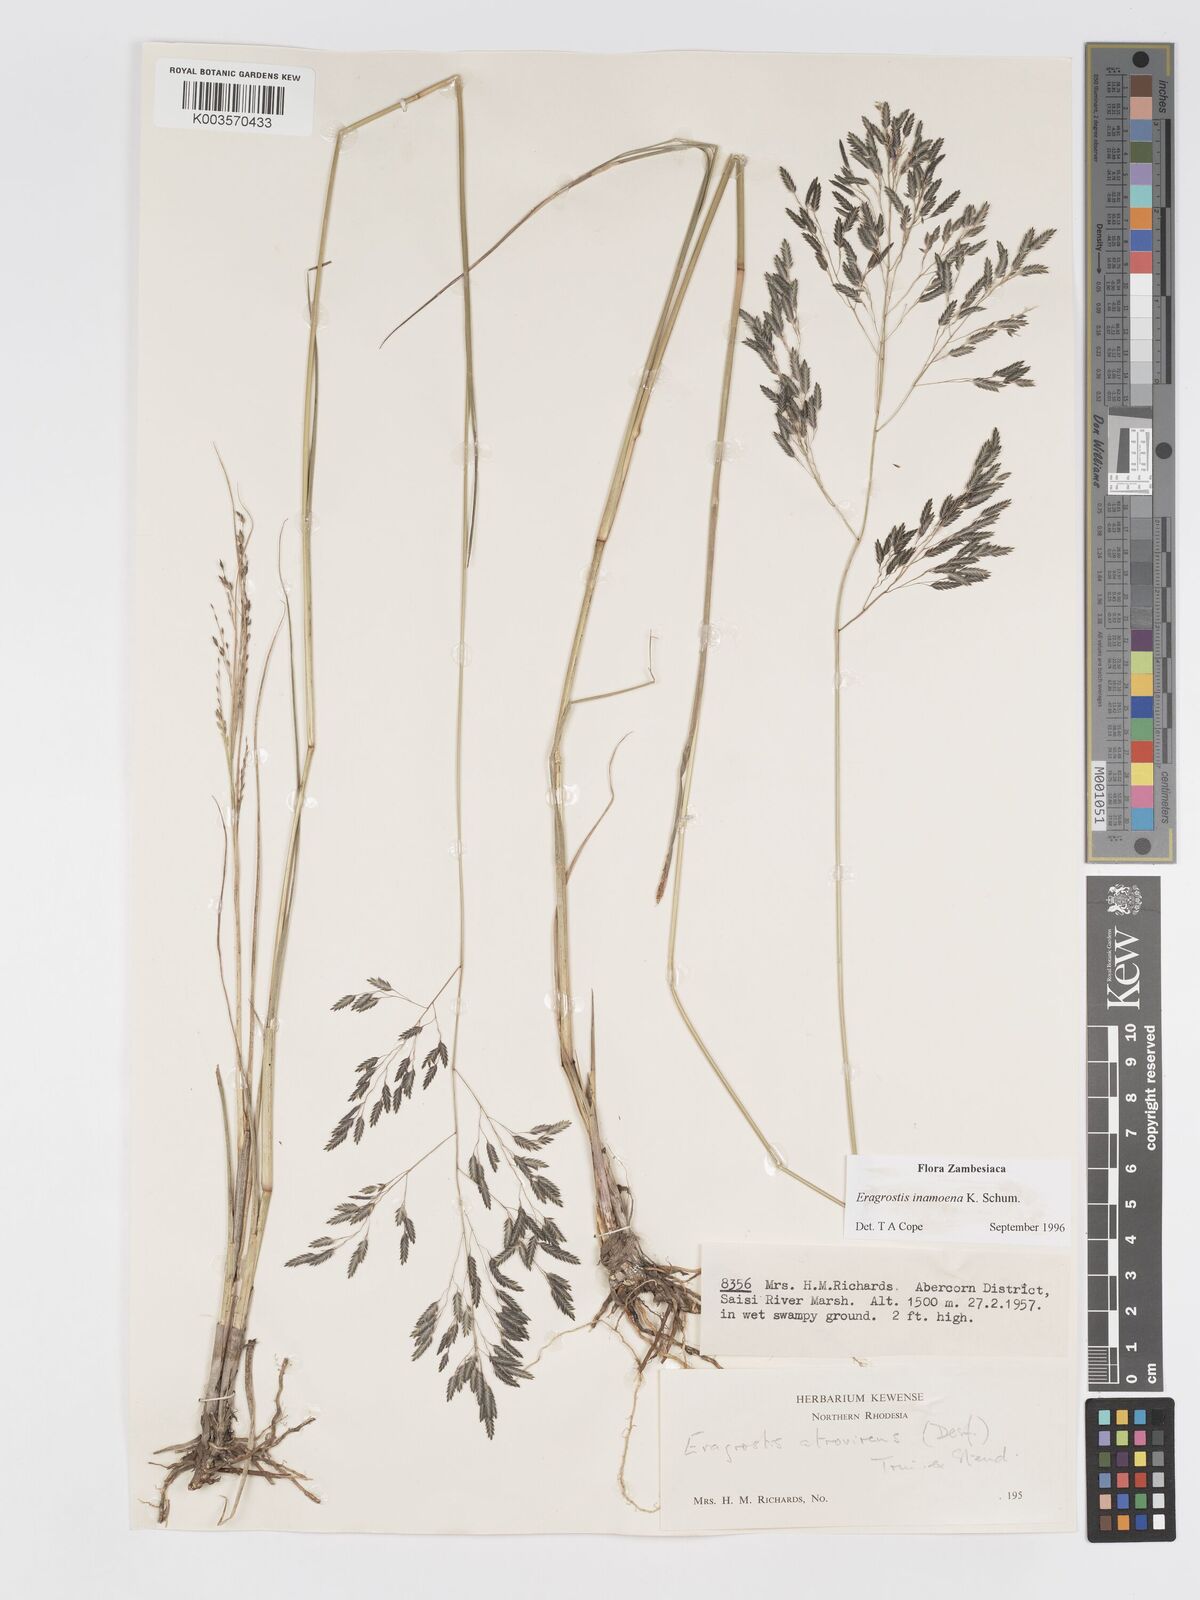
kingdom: Plantae
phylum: Tracheophyta
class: Liliopsida
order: Poales
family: Poaceae
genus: Eragrostis
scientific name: Eragrostis inamoena
